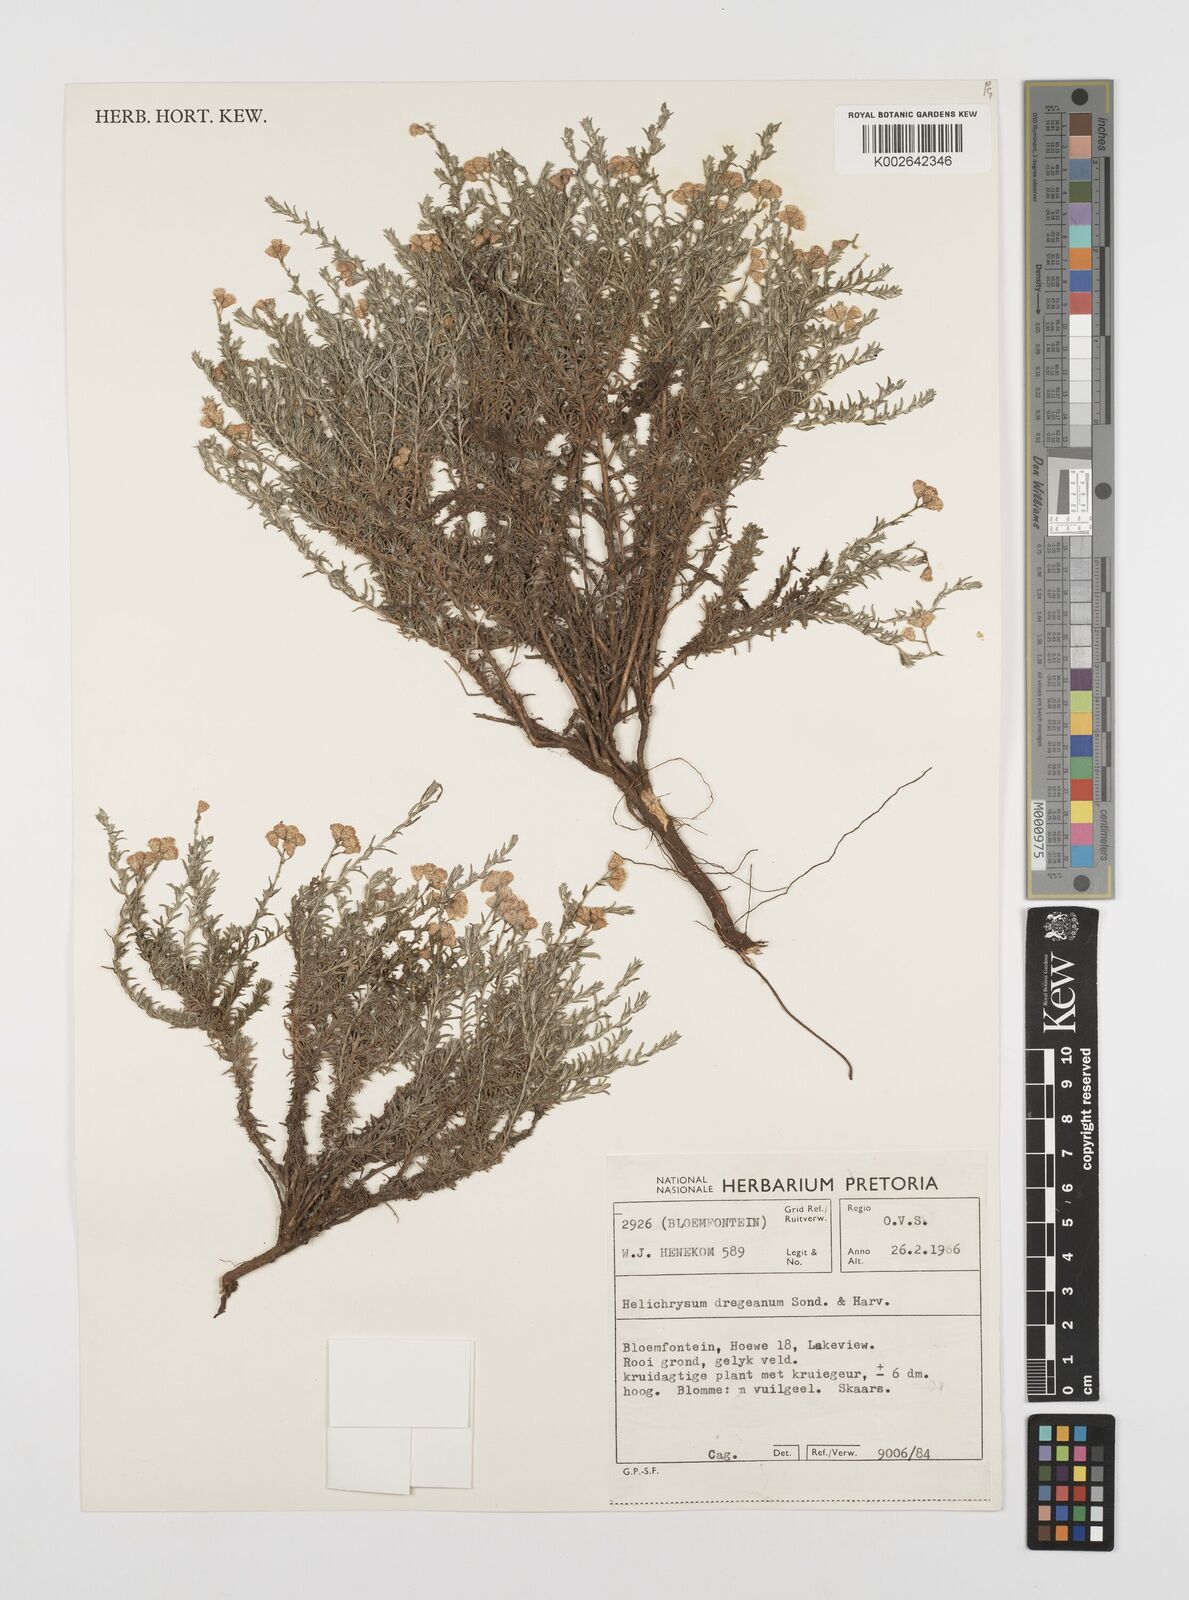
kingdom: Plantae
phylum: Tracheophyta
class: Magnoliopsida
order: Asterales
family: Asteraceae
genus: Helichrysum
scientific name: Helichrysum dregeanum
